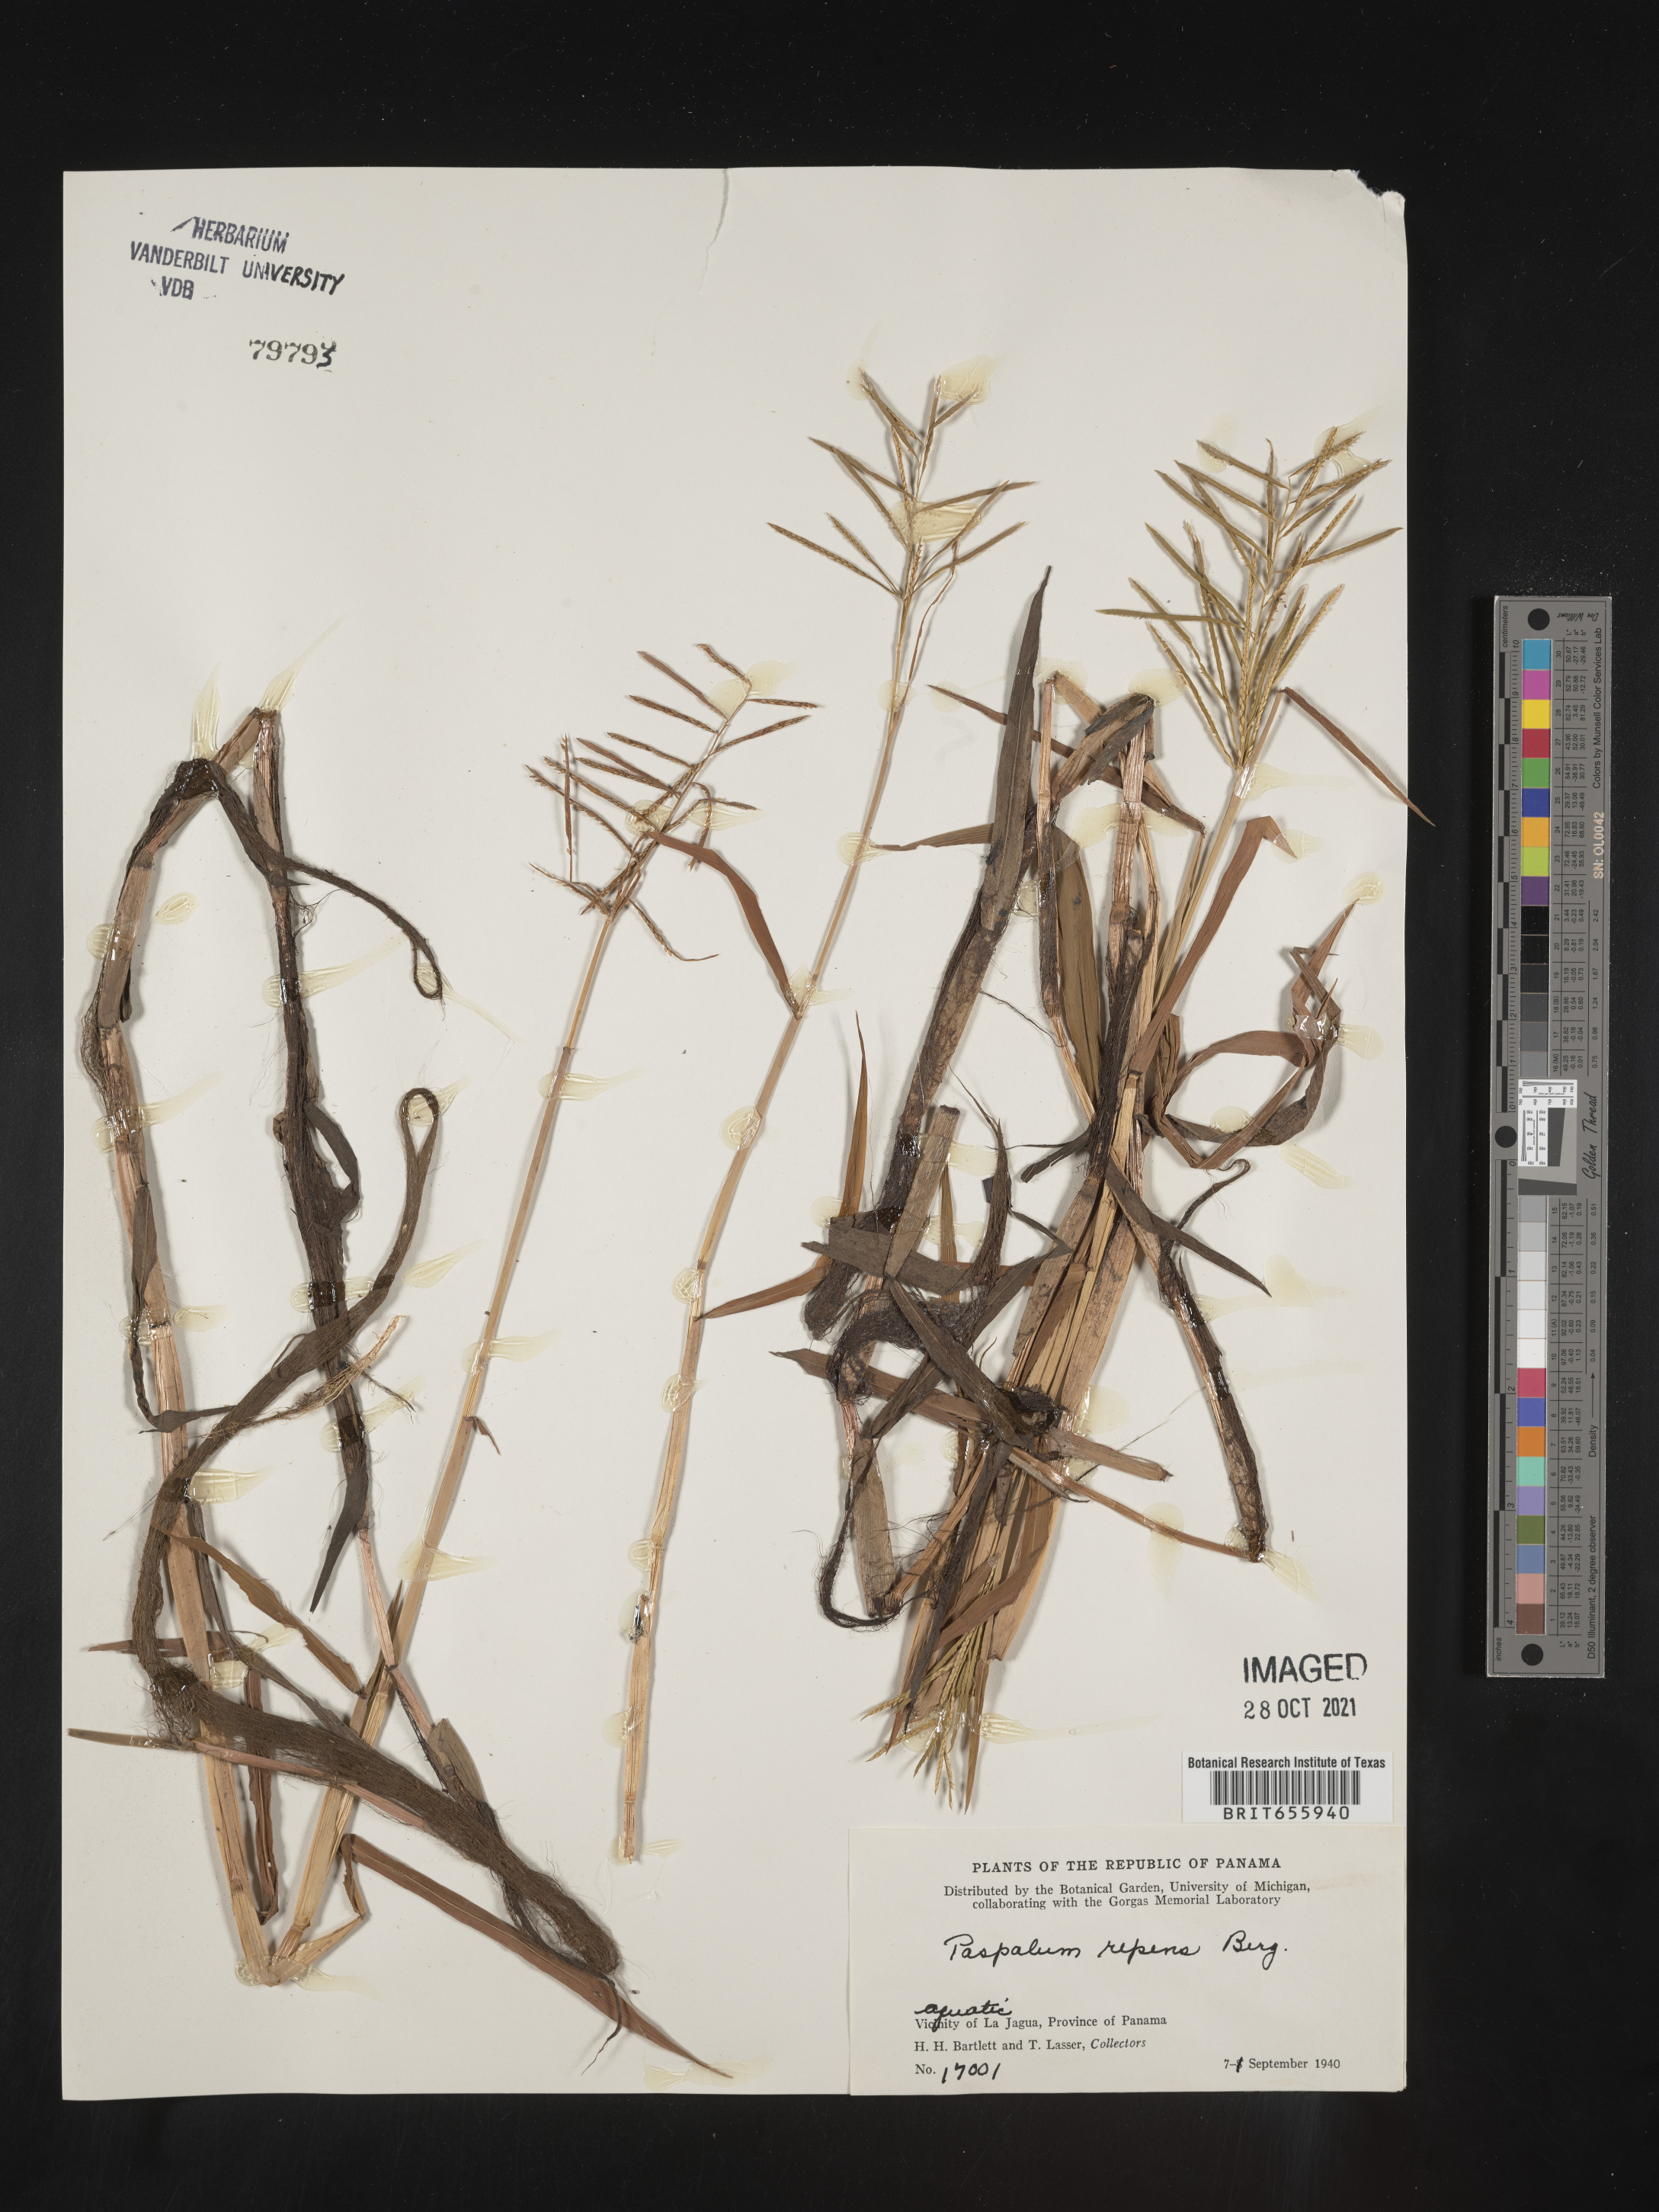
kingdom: Plantae
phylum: Tracheophyta
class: Liliopsida
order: Poales
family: Poaceae
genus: Paspalum
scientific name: Paspalum
